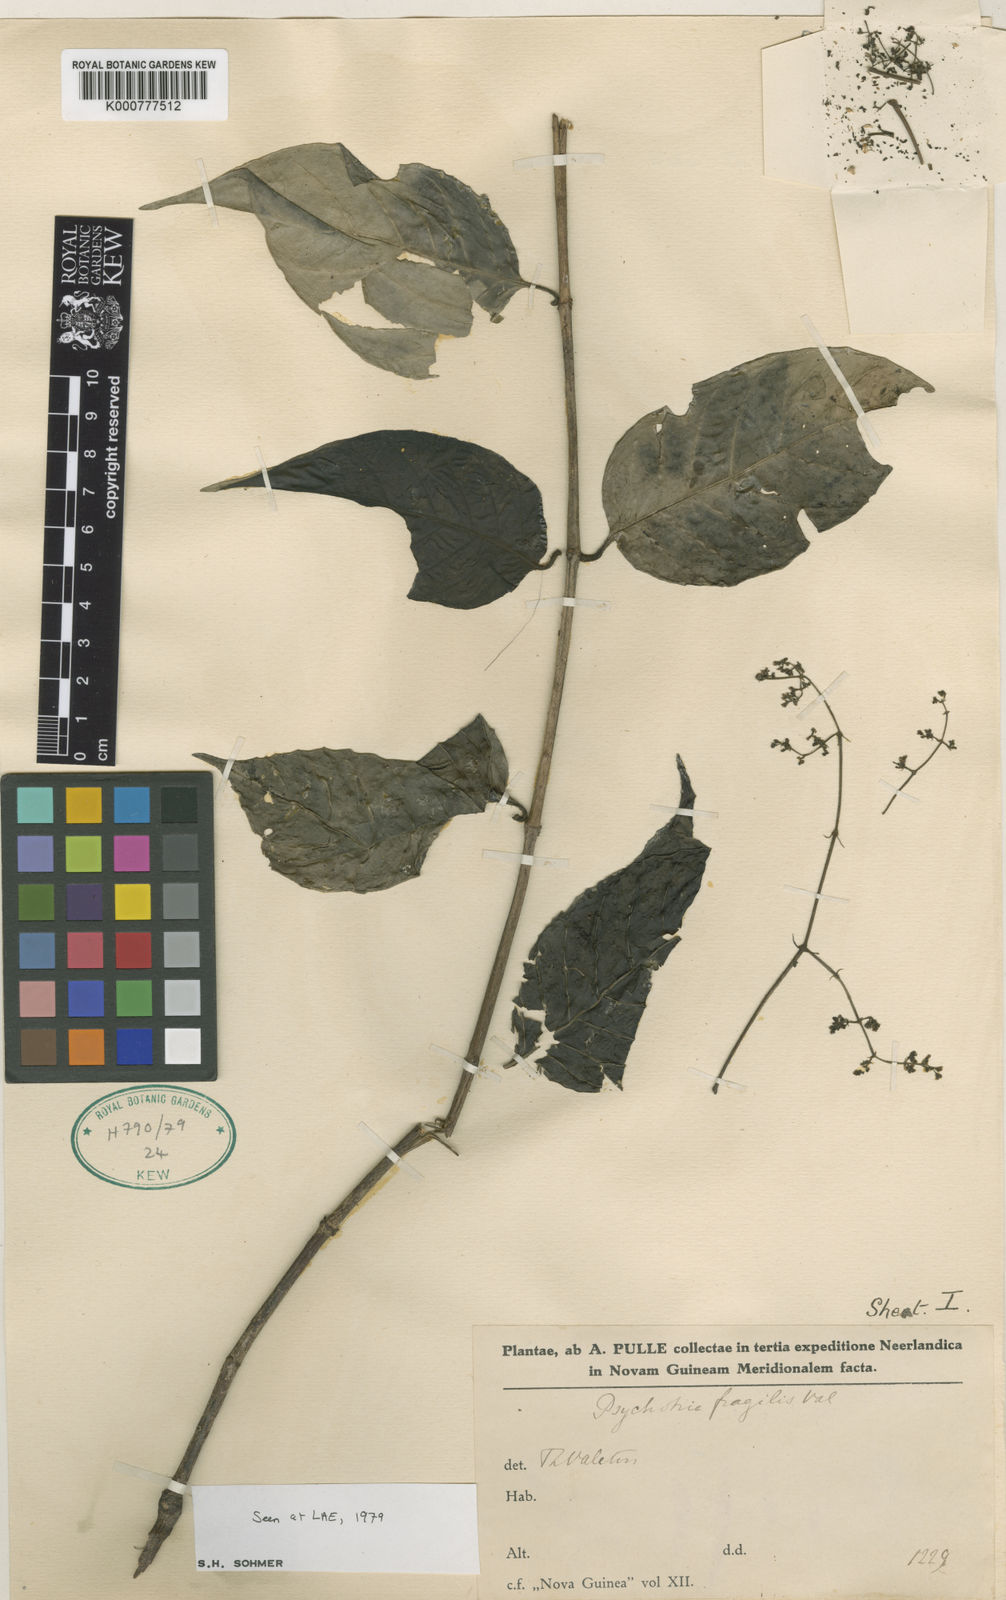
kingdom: Plantae
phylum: Tracheophyta
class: Magnoliopsida
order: Gentianales
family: Rubiaceae
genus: Psychotria
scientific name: Psychotria
